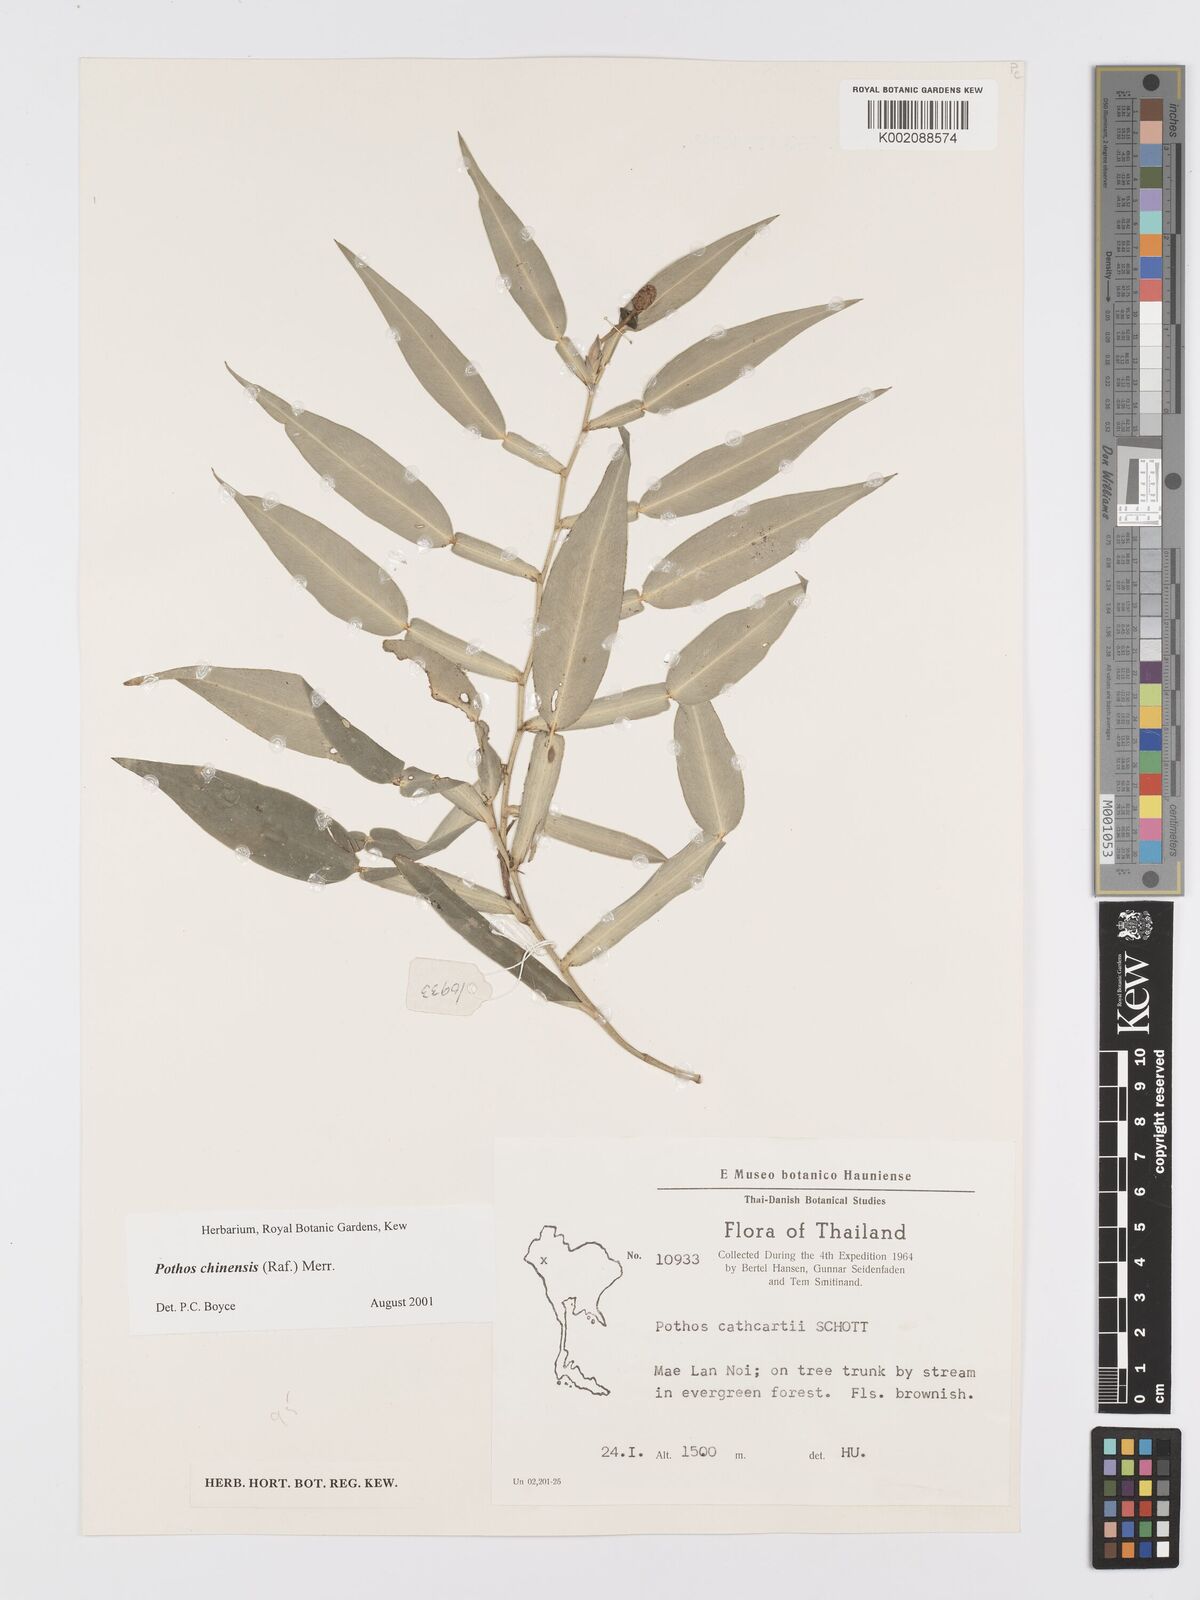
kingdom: Plantae
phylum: Tracheophyta
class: Liliopsida
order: Alismatales
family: Araceae
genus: Pothos
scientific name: Pothos chinensis
